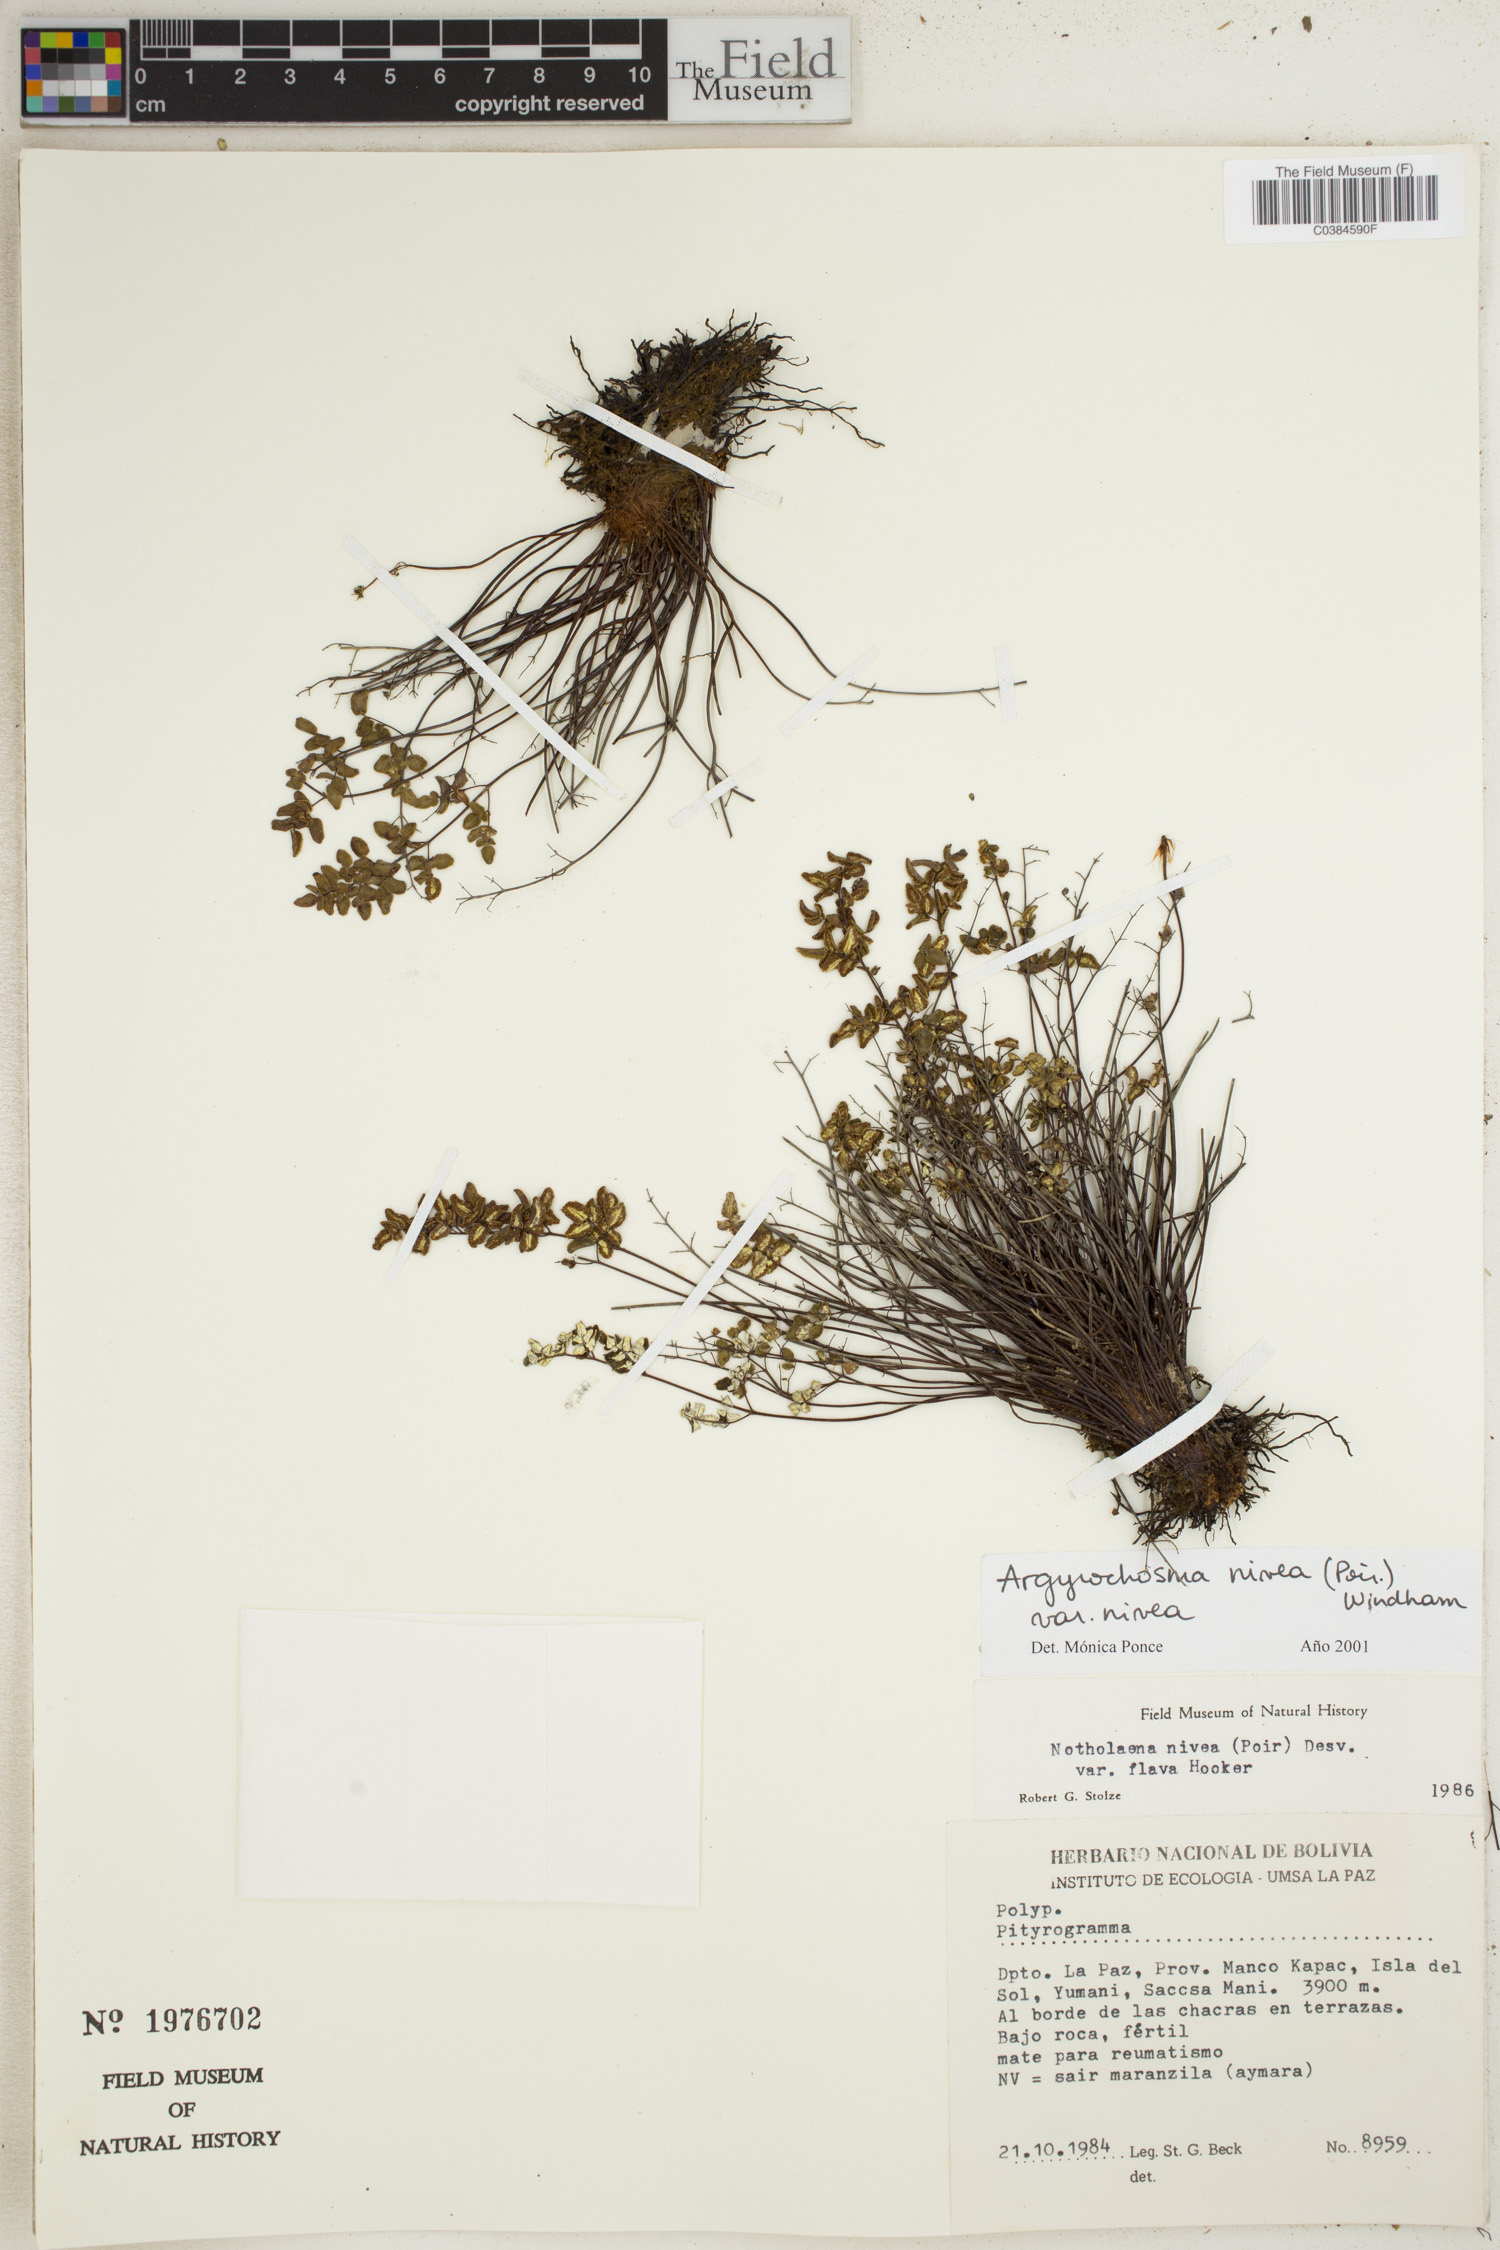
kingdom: Plantae
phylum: Tracheophyta
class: Polypodiopsida
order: Polypodiales
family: Pteridaceae
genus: Argyrochosma
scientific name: Argyrochosma nivea
